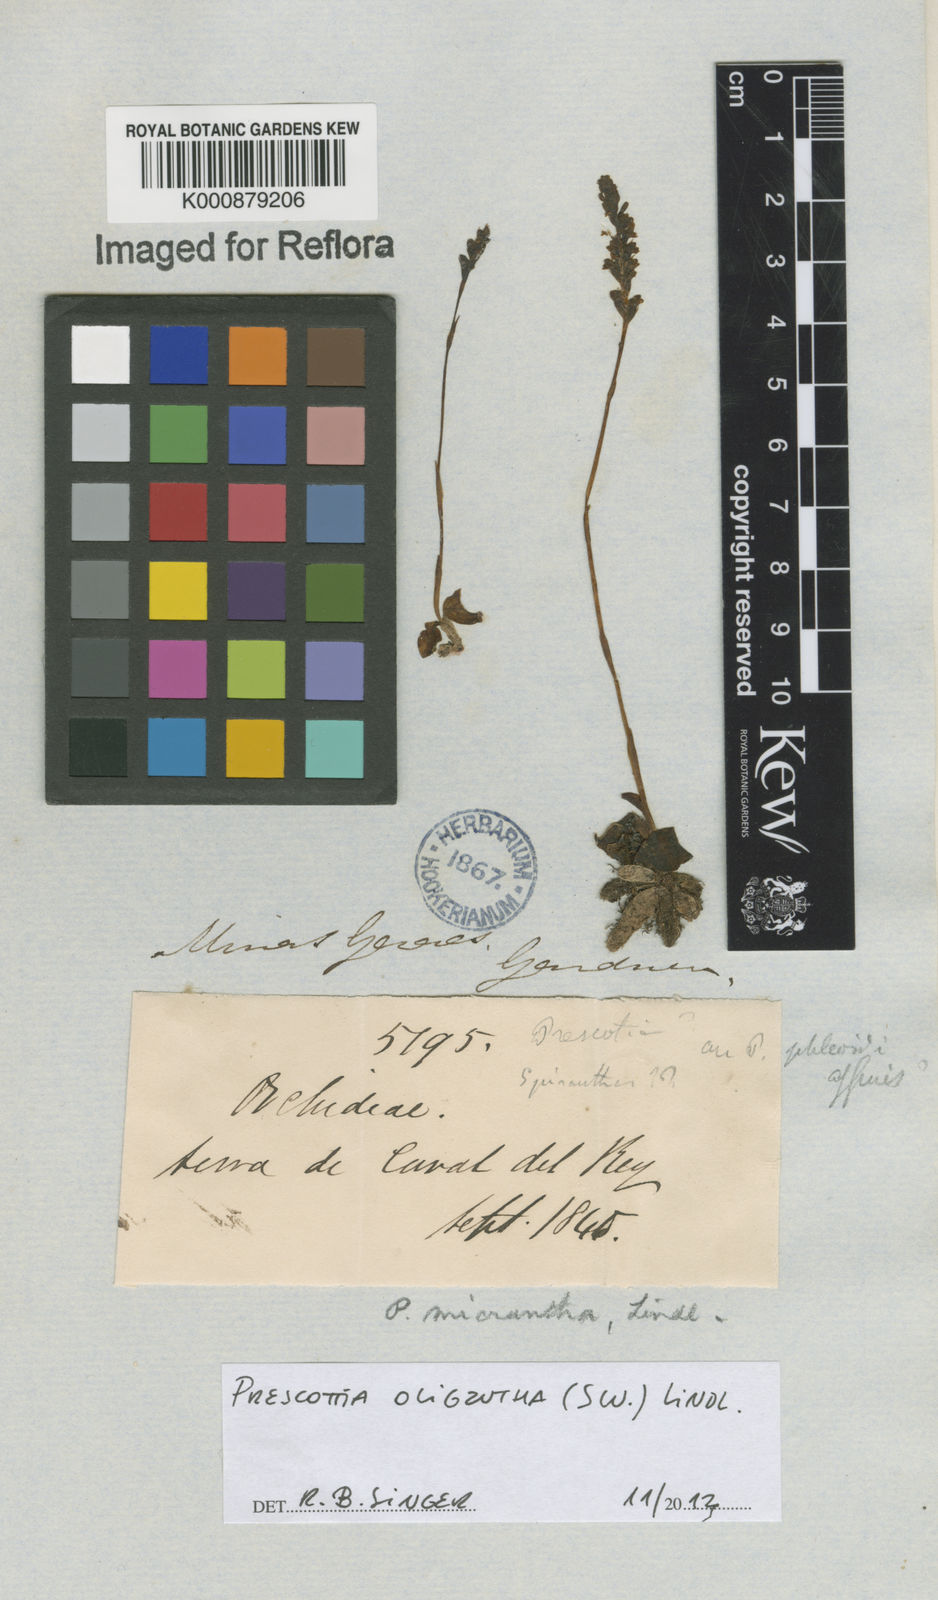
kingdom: Plantae
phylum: Tracheophyta
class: Liliopsida
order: Asparagales
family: Orchidaceae
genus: Prescottia
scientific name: Prescottia oligantha
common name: Small prescott orchid
